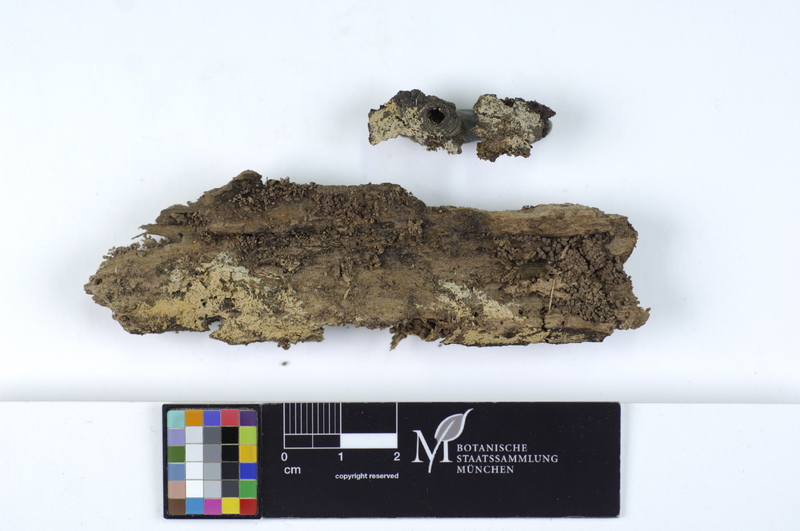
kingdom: Plantae
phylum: Tracheophyta
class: Magnoliopsida
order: Fagales
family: Fagaceae
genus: Fagus
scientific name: Fagus sylvatica
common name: Beech
